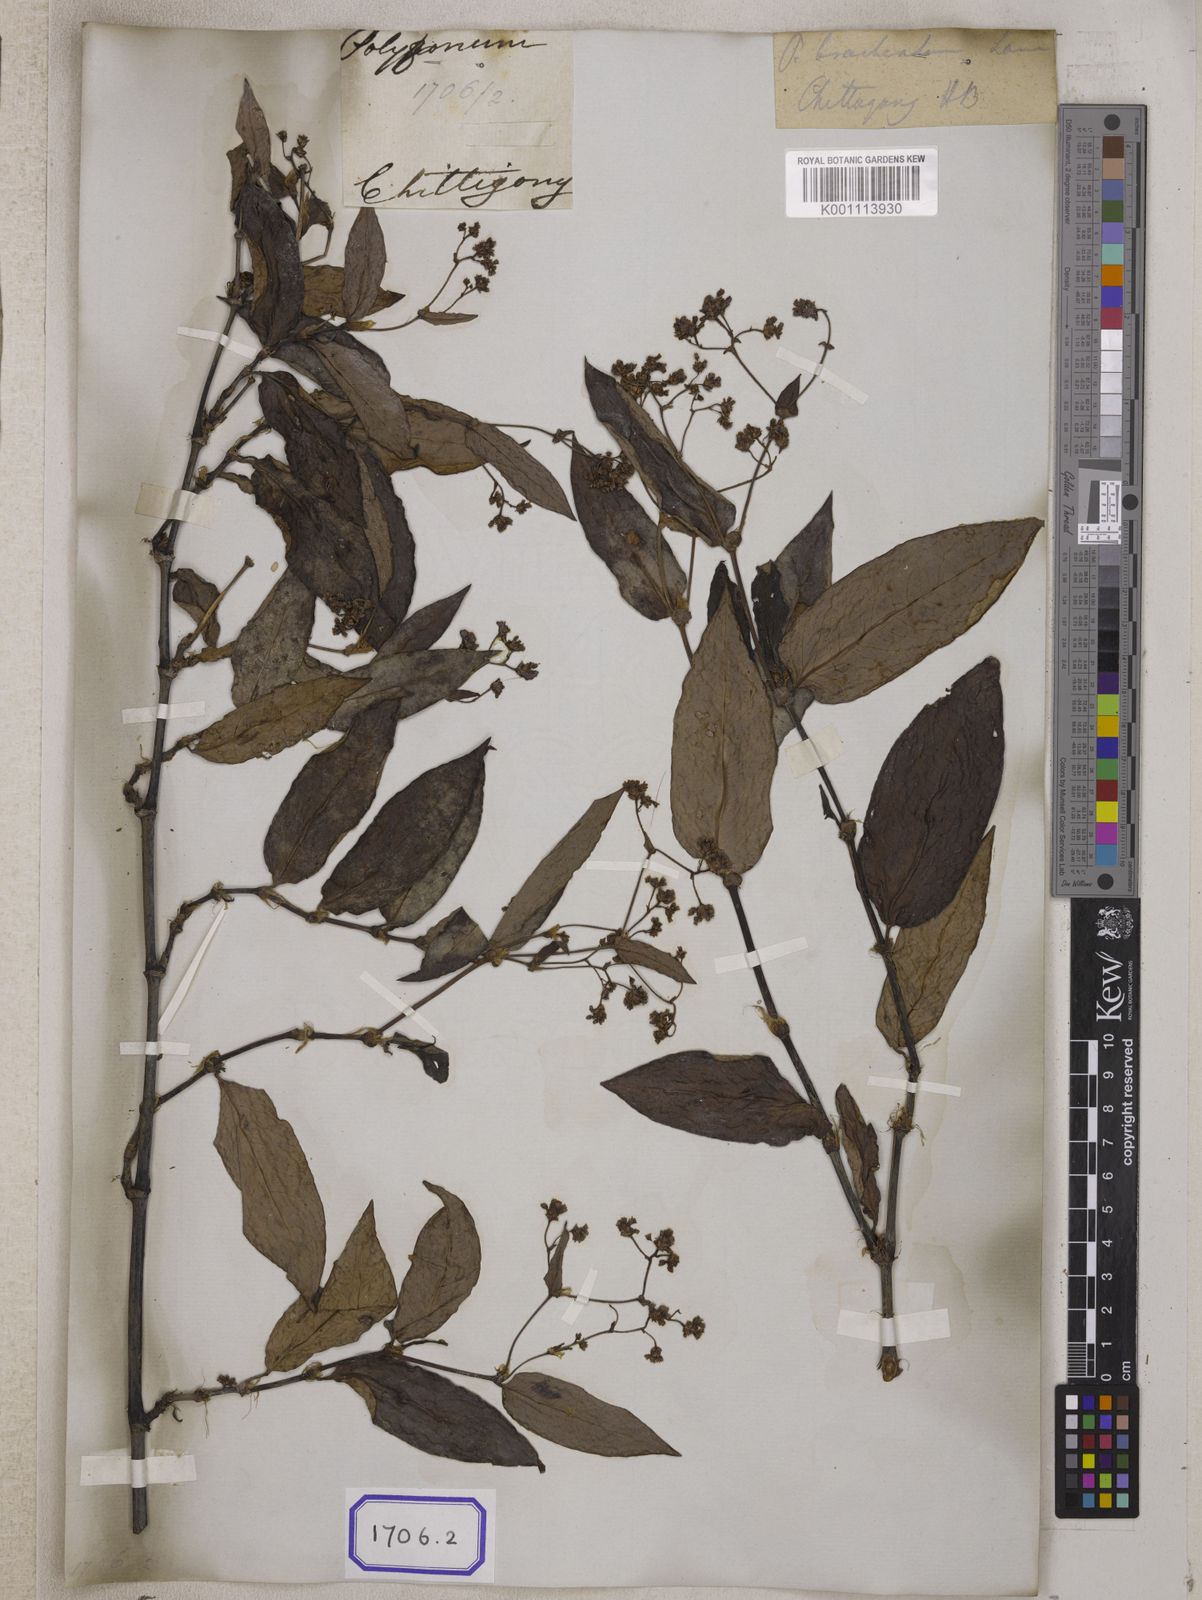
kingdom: Plantae
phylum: Tracheophyta
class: Magnoliopsida
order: Caryophyllales
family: Polygonaceae
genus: Polygonum
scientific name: Polygonum
